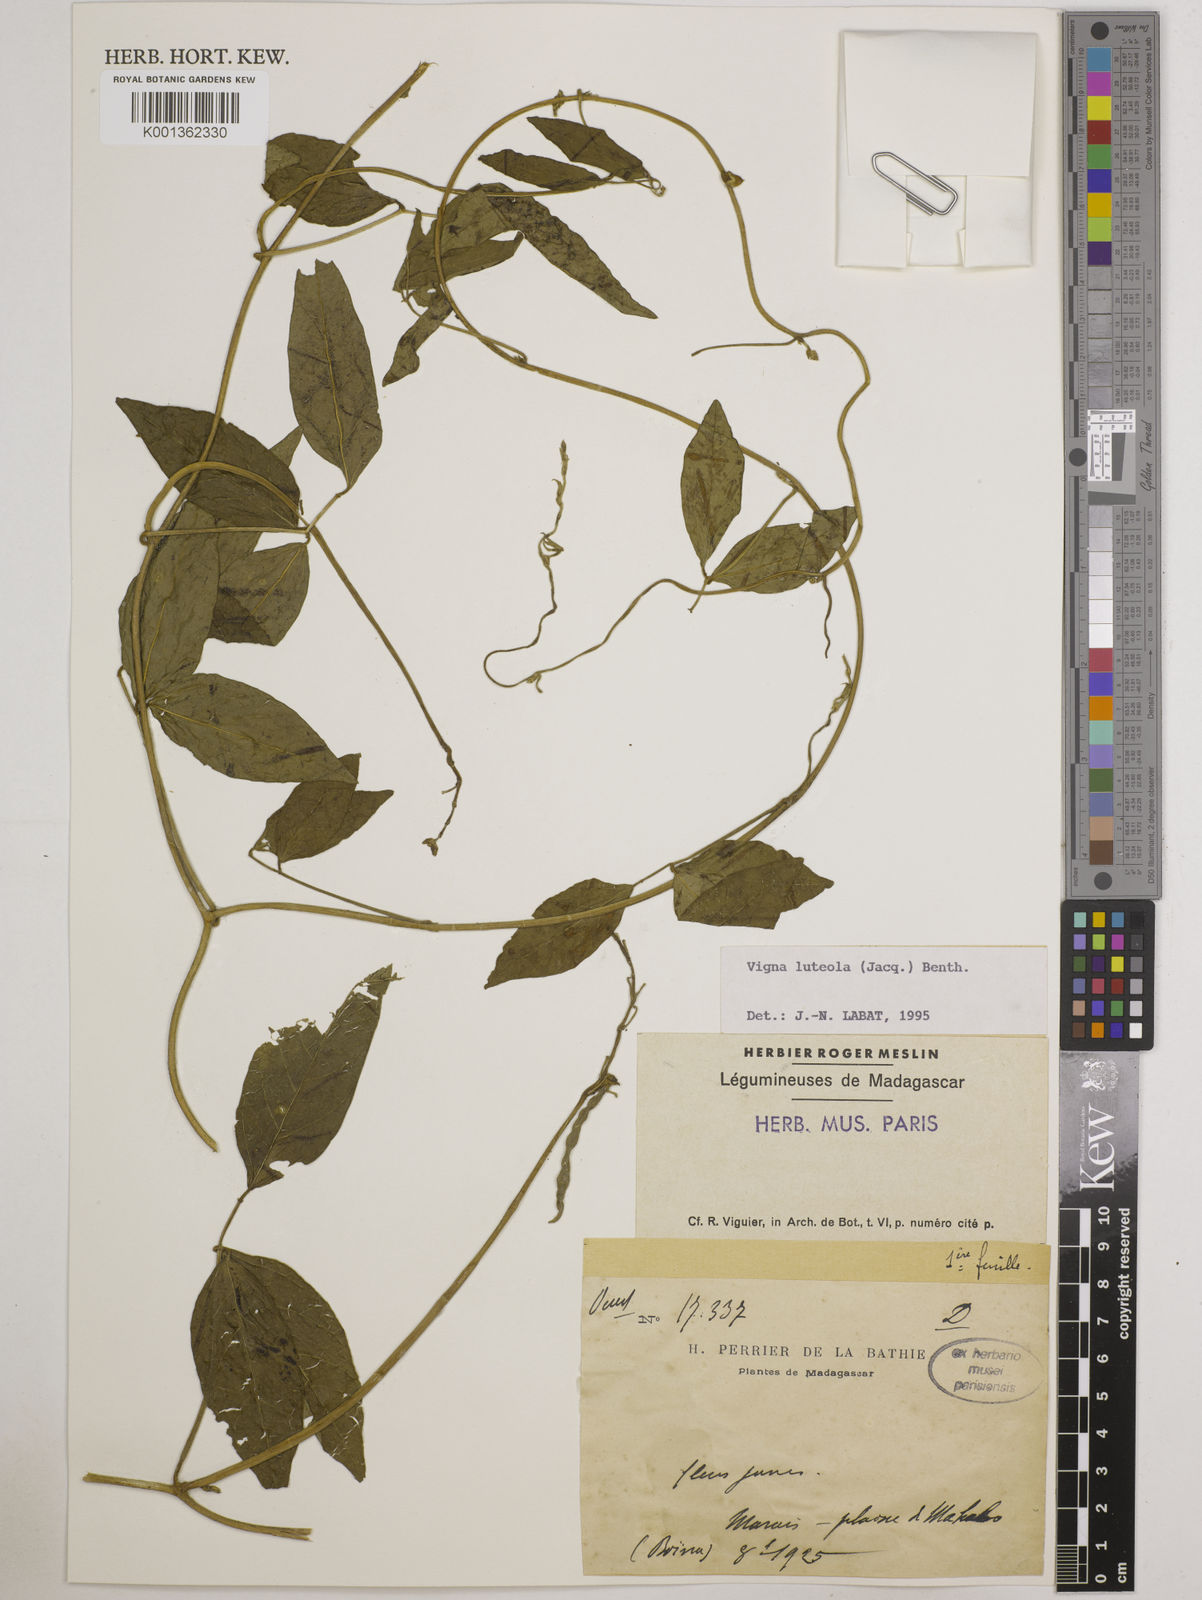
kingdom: Plantae
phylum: Tracheophyta
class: Magnoliopsida
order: Fabales
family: Fabaceae
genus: Vigna
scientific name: Vigna luteola
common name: Hairypod cowpea
